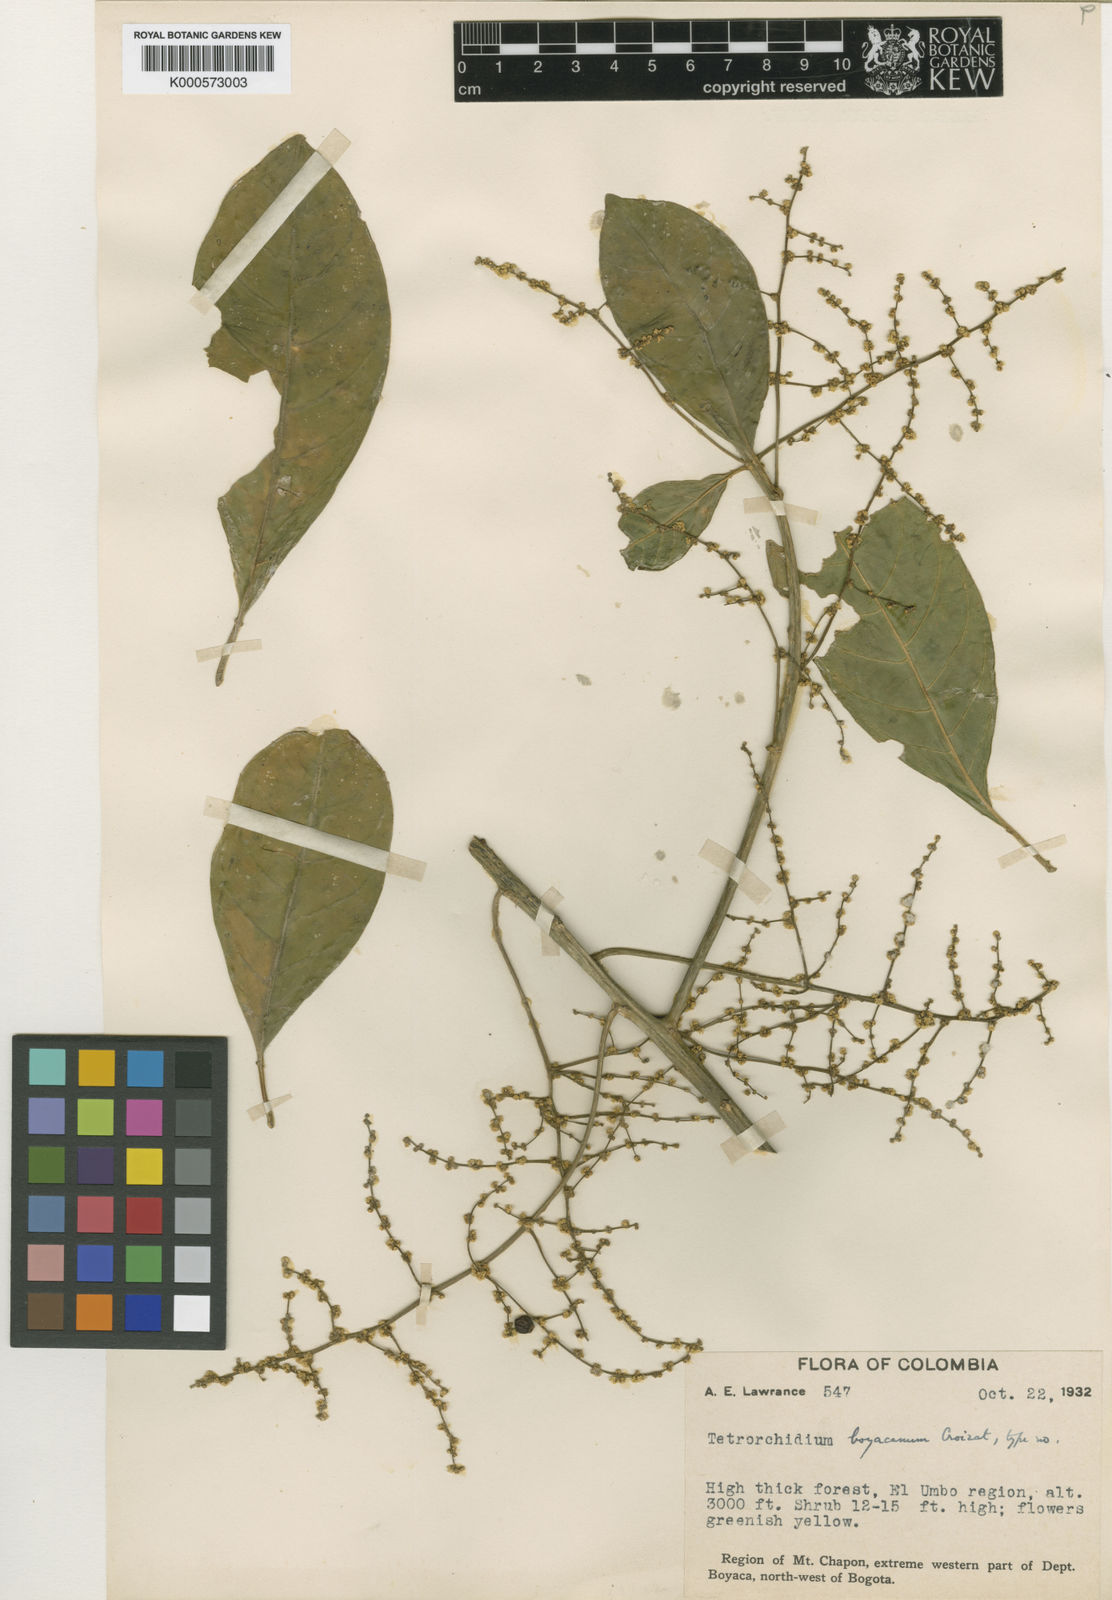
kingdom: Plantae
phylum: Tracheophyta
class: Magnoliopsida
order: Malpighiales
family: Euphorbiaceae
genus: Tetrorchidium
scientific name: Tetrorchidium rubrivenium
